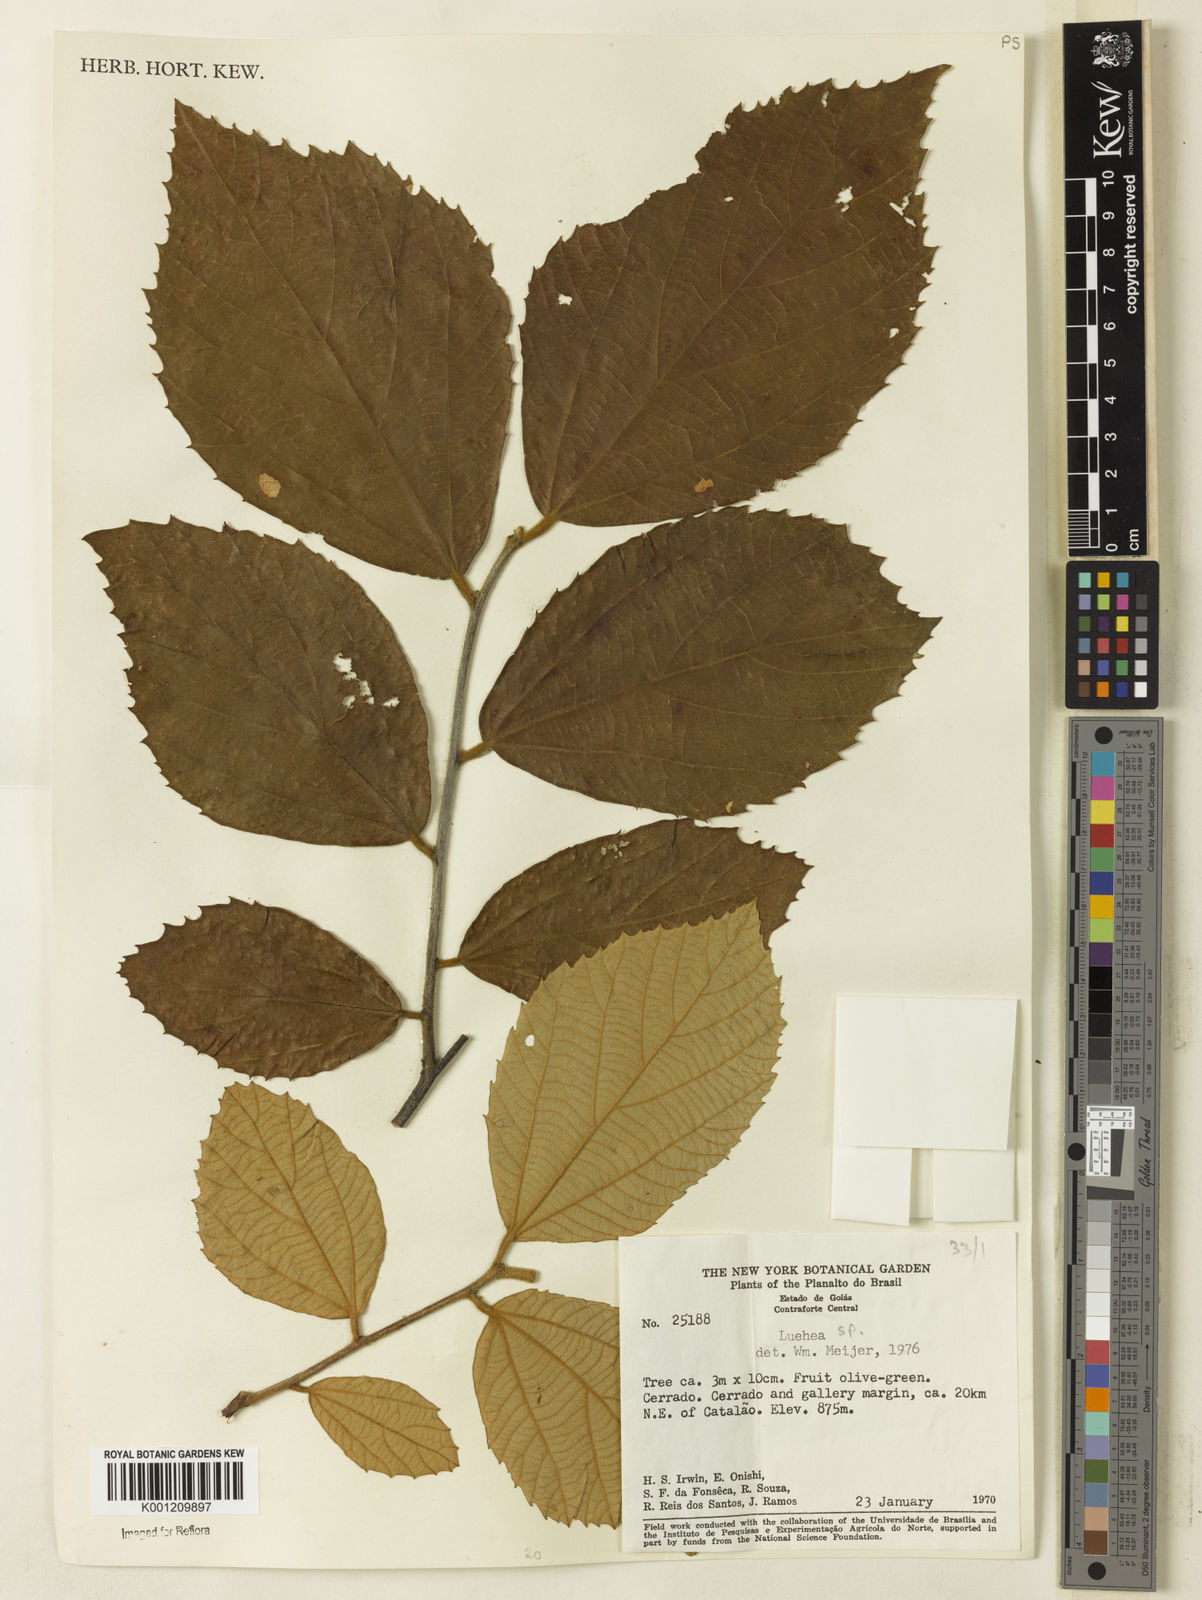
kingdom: Plantae
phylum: Tracheophyta
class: Magnoliopsida
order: Malvales
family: Malvaceae
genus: Luehea
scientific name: Luehea
